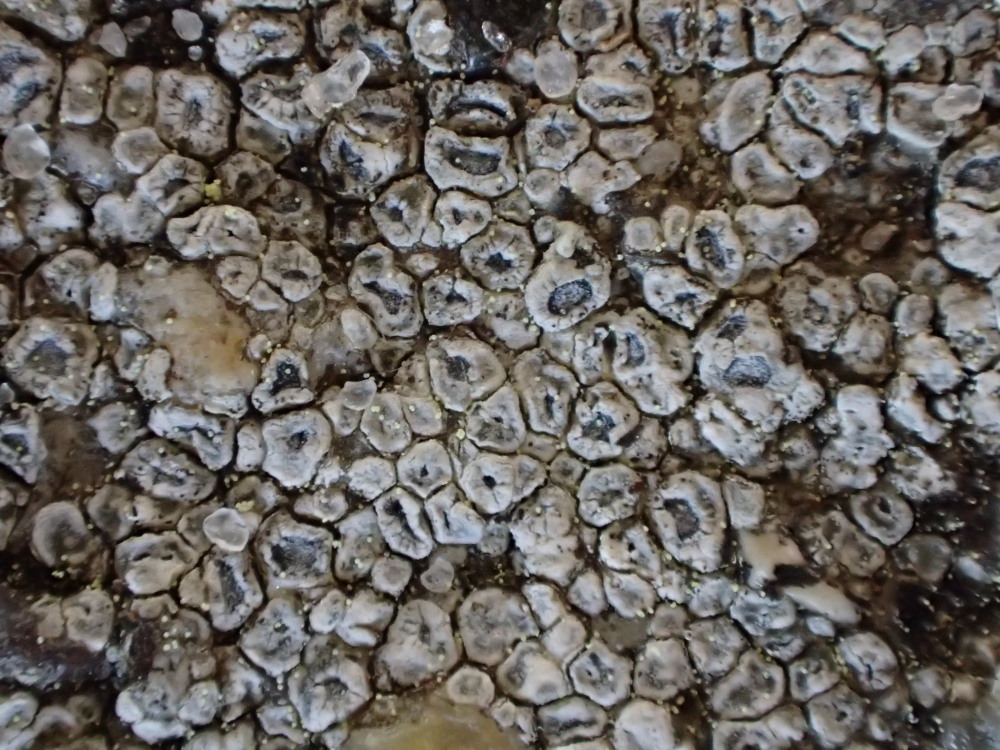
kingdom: Fungi
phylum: Ascomycota
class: Lecanoromycetes
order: Pertusariales
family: Megasporaceae
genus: Circinaria
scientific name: Circinaria contorta
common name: indviklet hulskivelav
